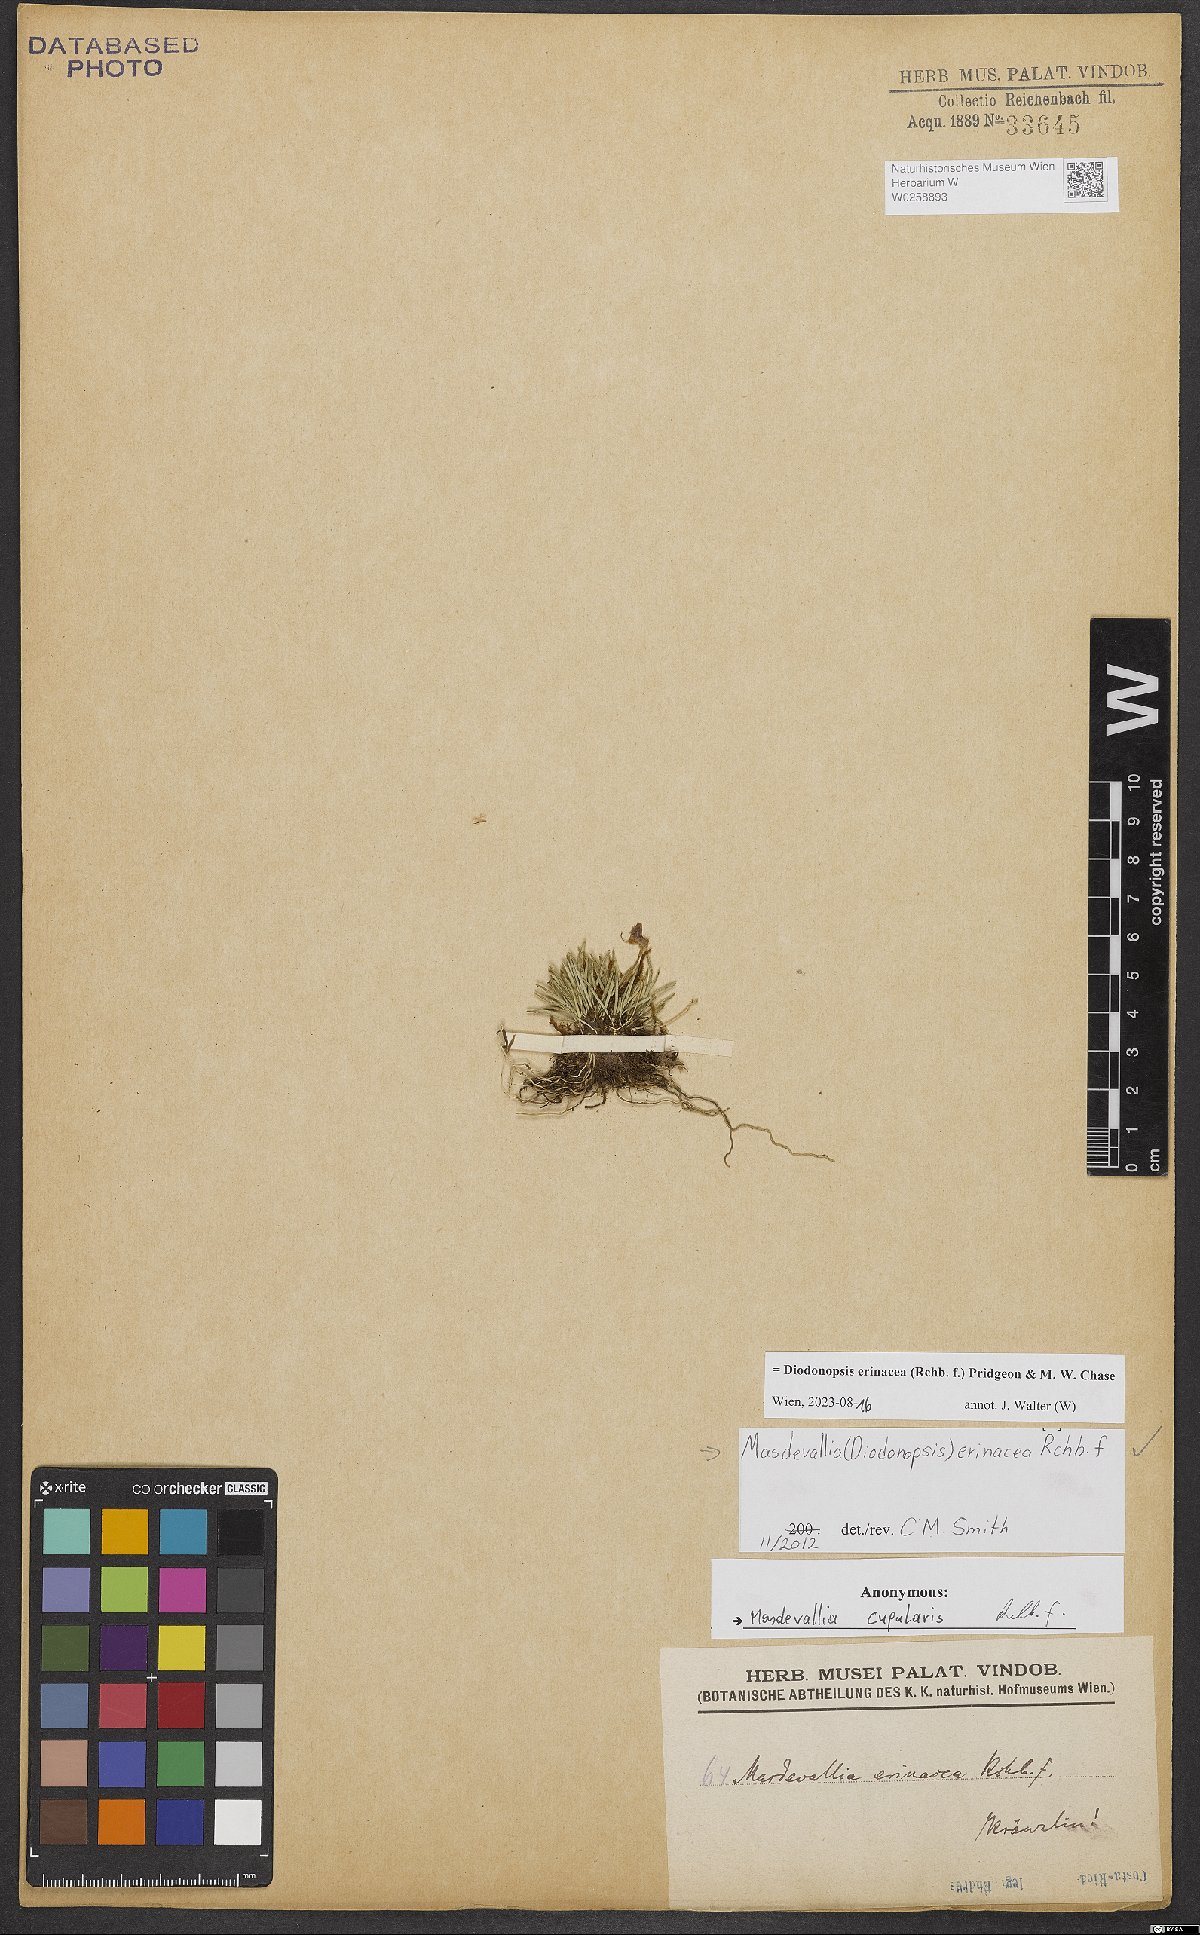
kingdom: Plantae
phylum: Tracheophyta
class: Liliopsida
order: Asparagales
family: Orchidaceae
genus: Diodonopsis
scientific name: Diodonopsis erinacea
